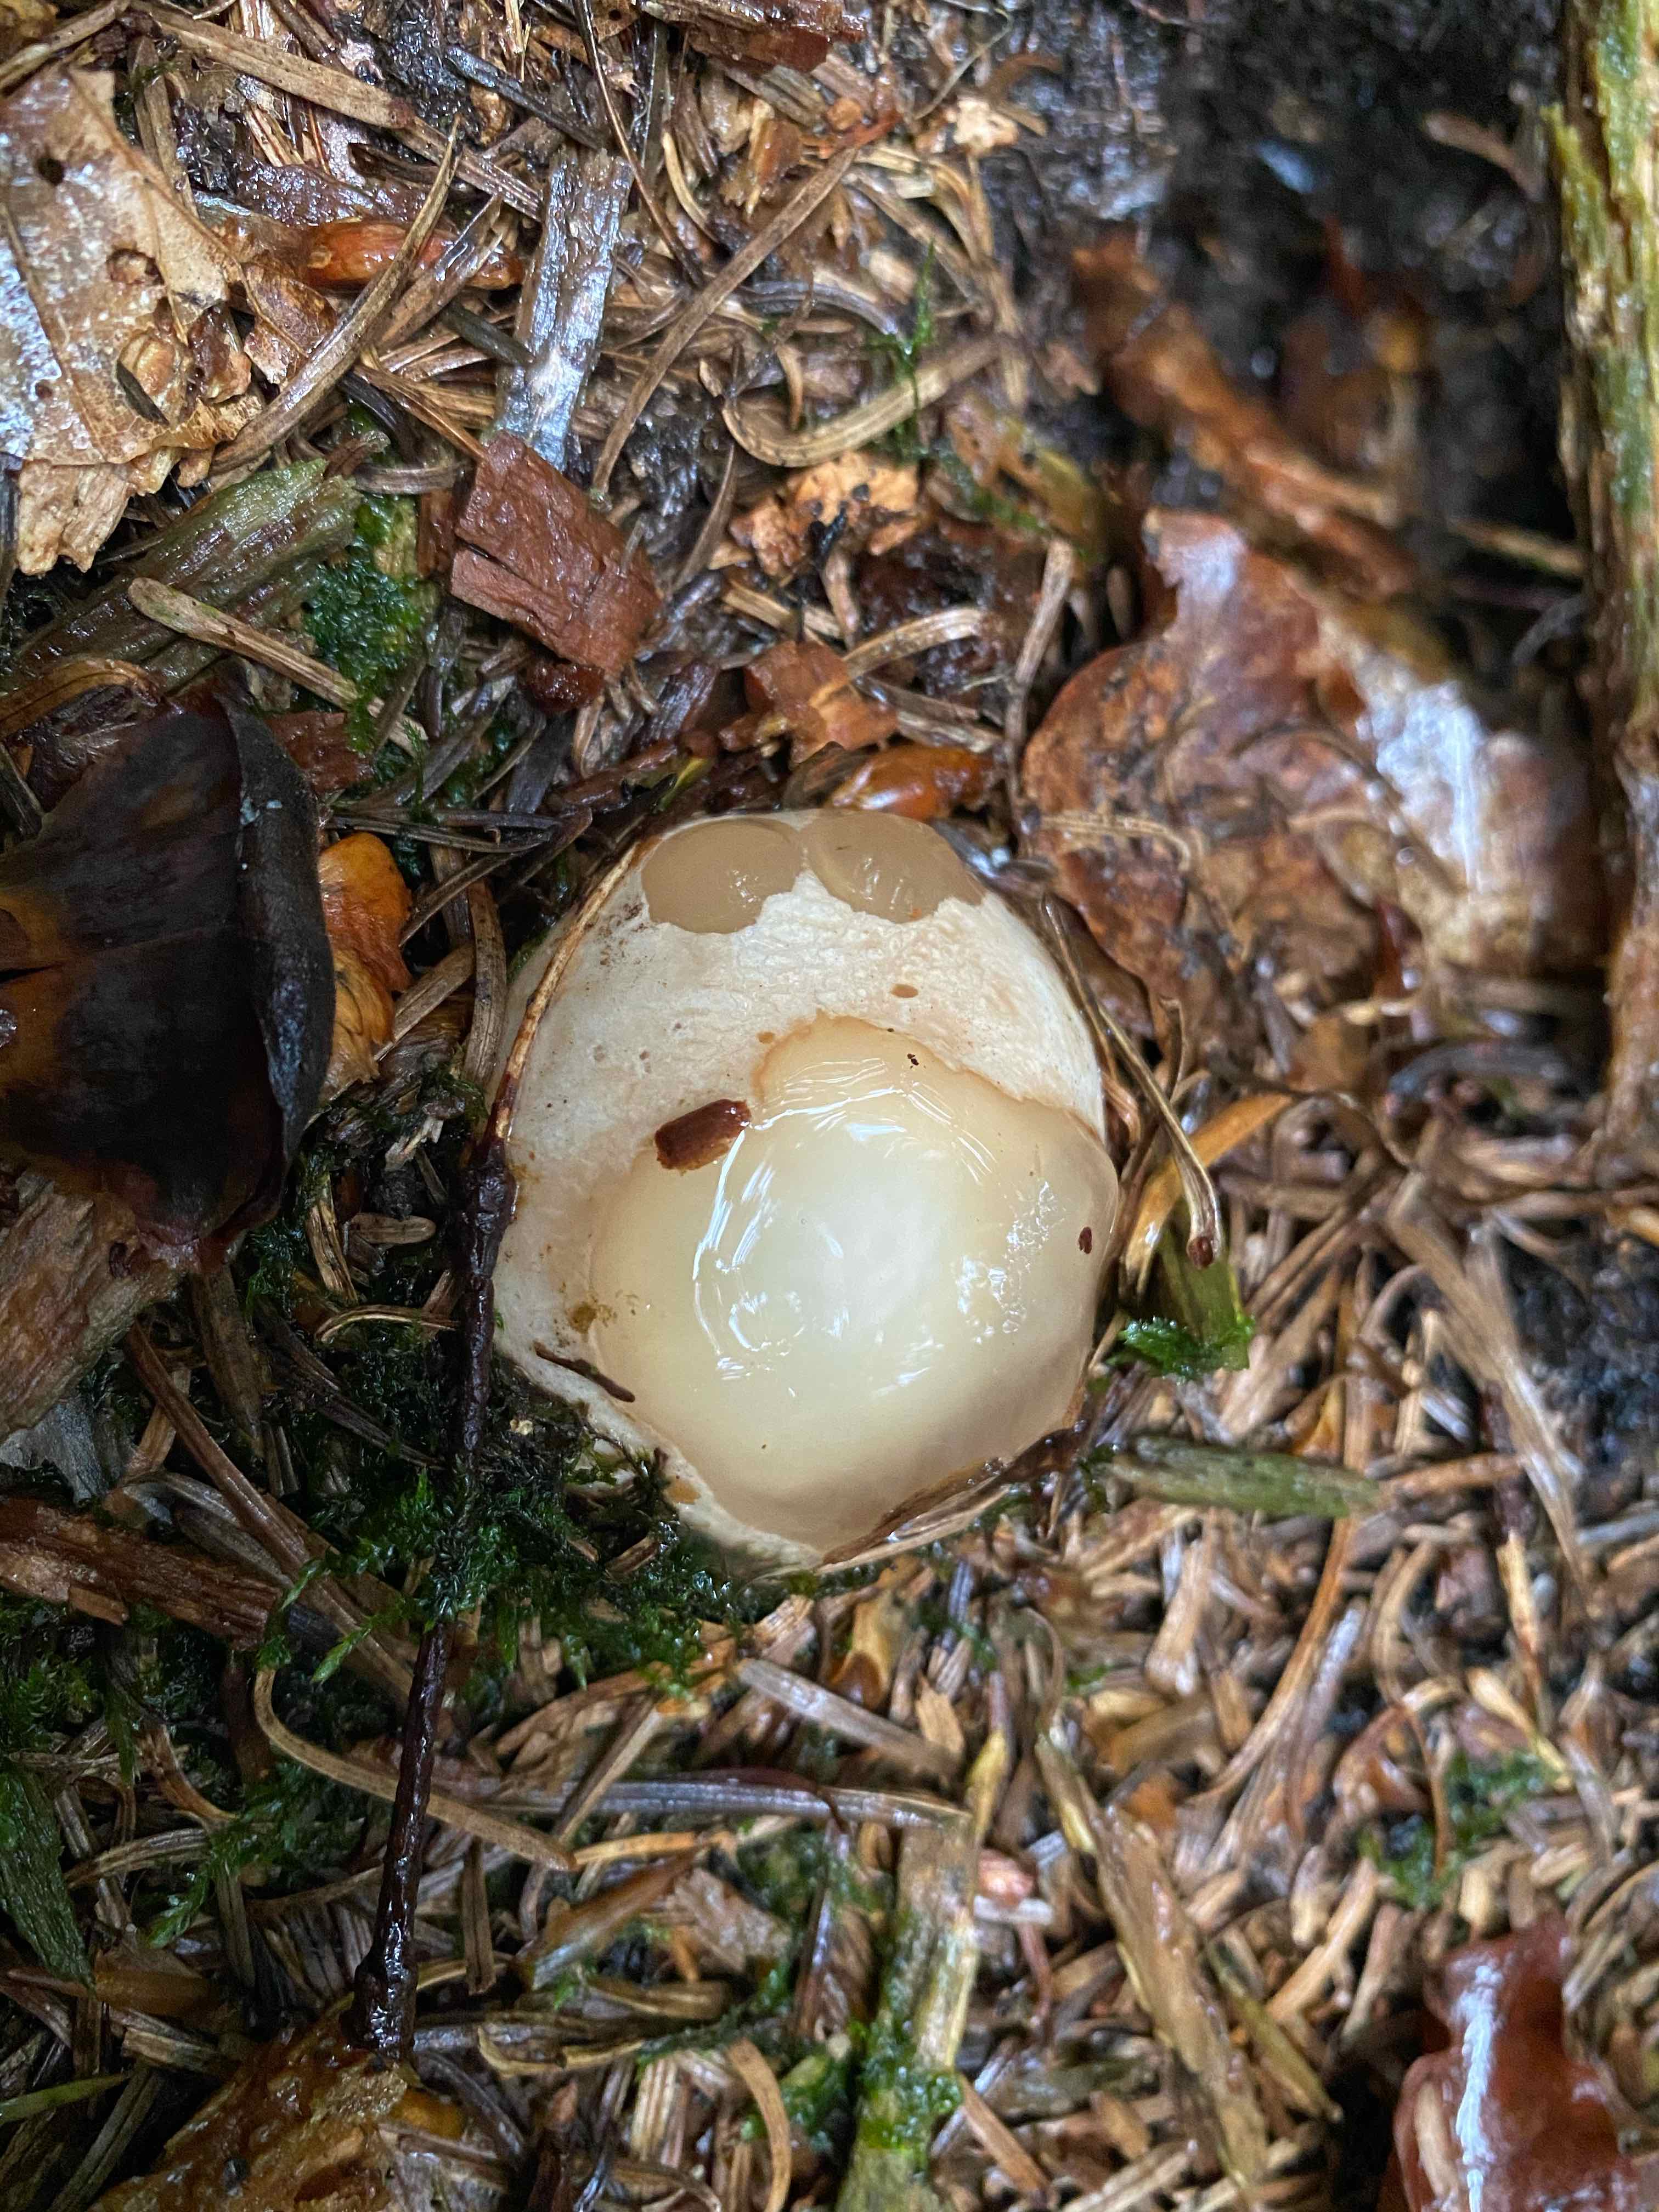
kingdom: Fungi
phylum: Basidiomycota
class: Agaricomycetes
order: Phallales
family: Phallaceae
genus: Phallus
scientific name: Phallus impudicus
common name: almindelig stinksvamp
